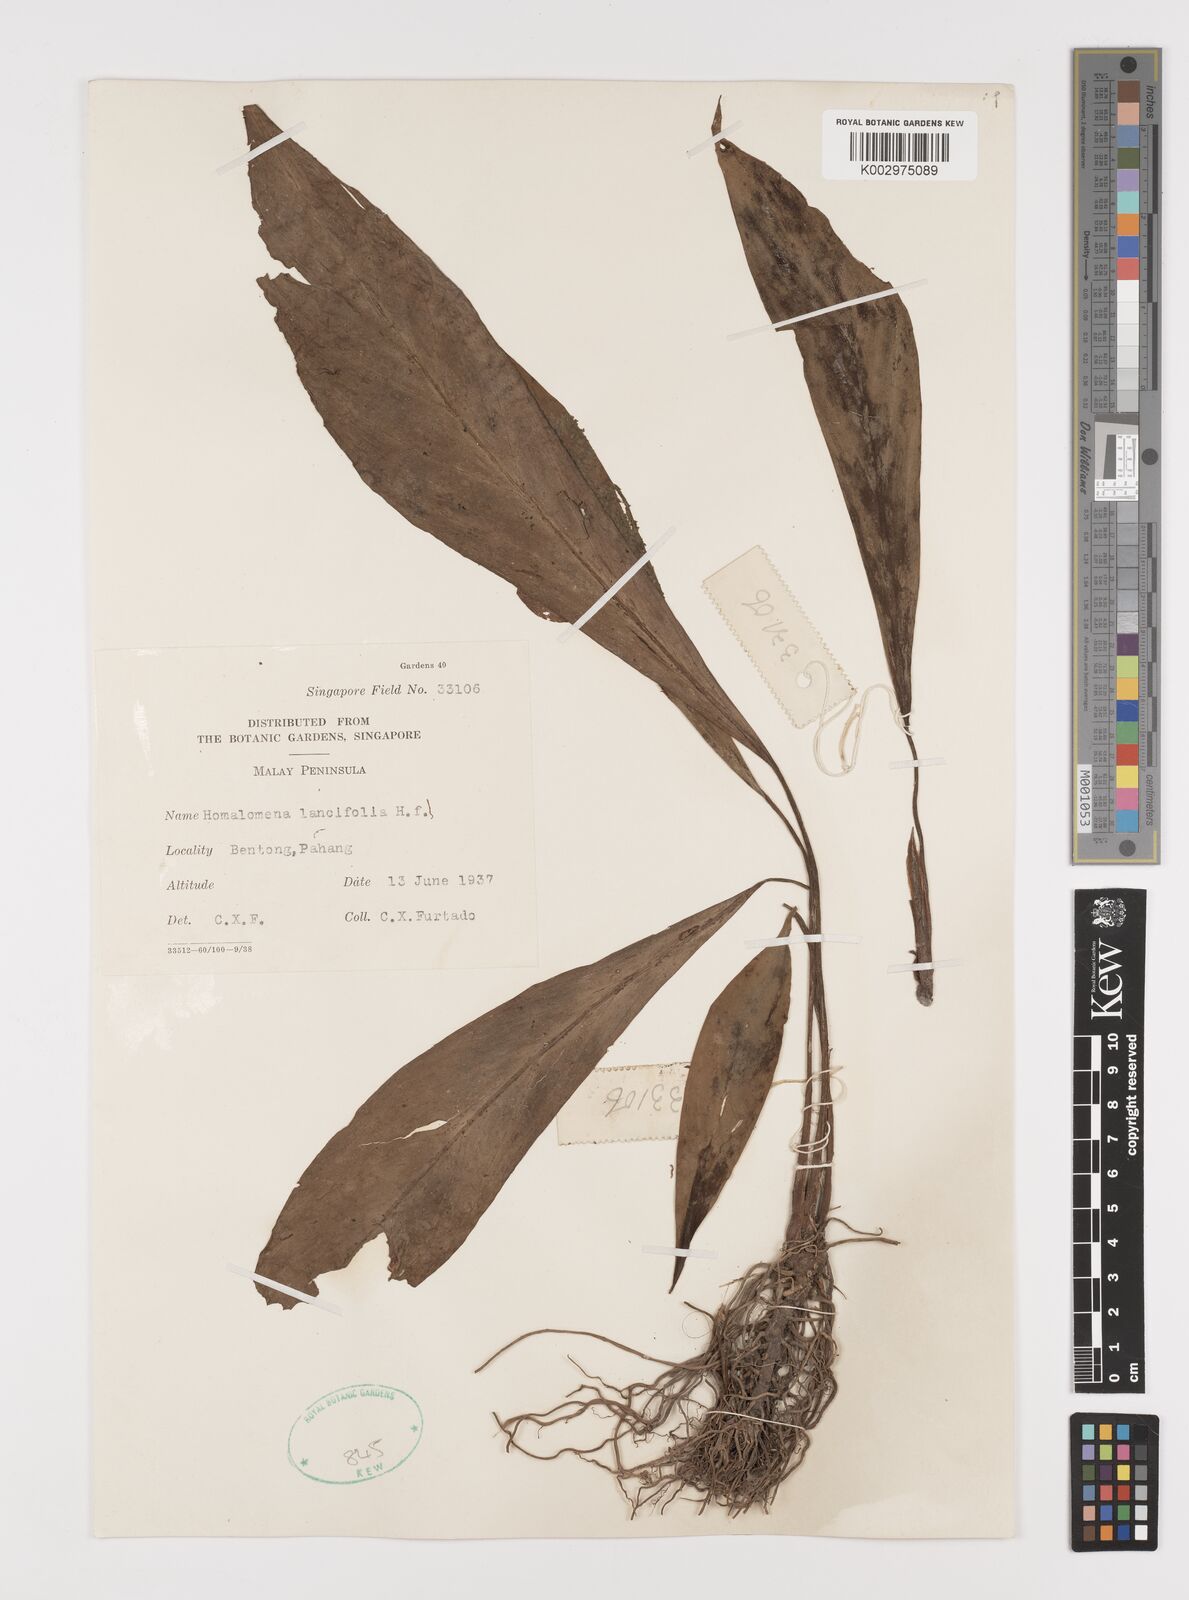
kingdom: Plantae
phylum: Tracheophyta
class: Liliopsida
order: Alismatales
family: Araceae
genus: Homalomena
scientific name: Homalomena lancifolia
